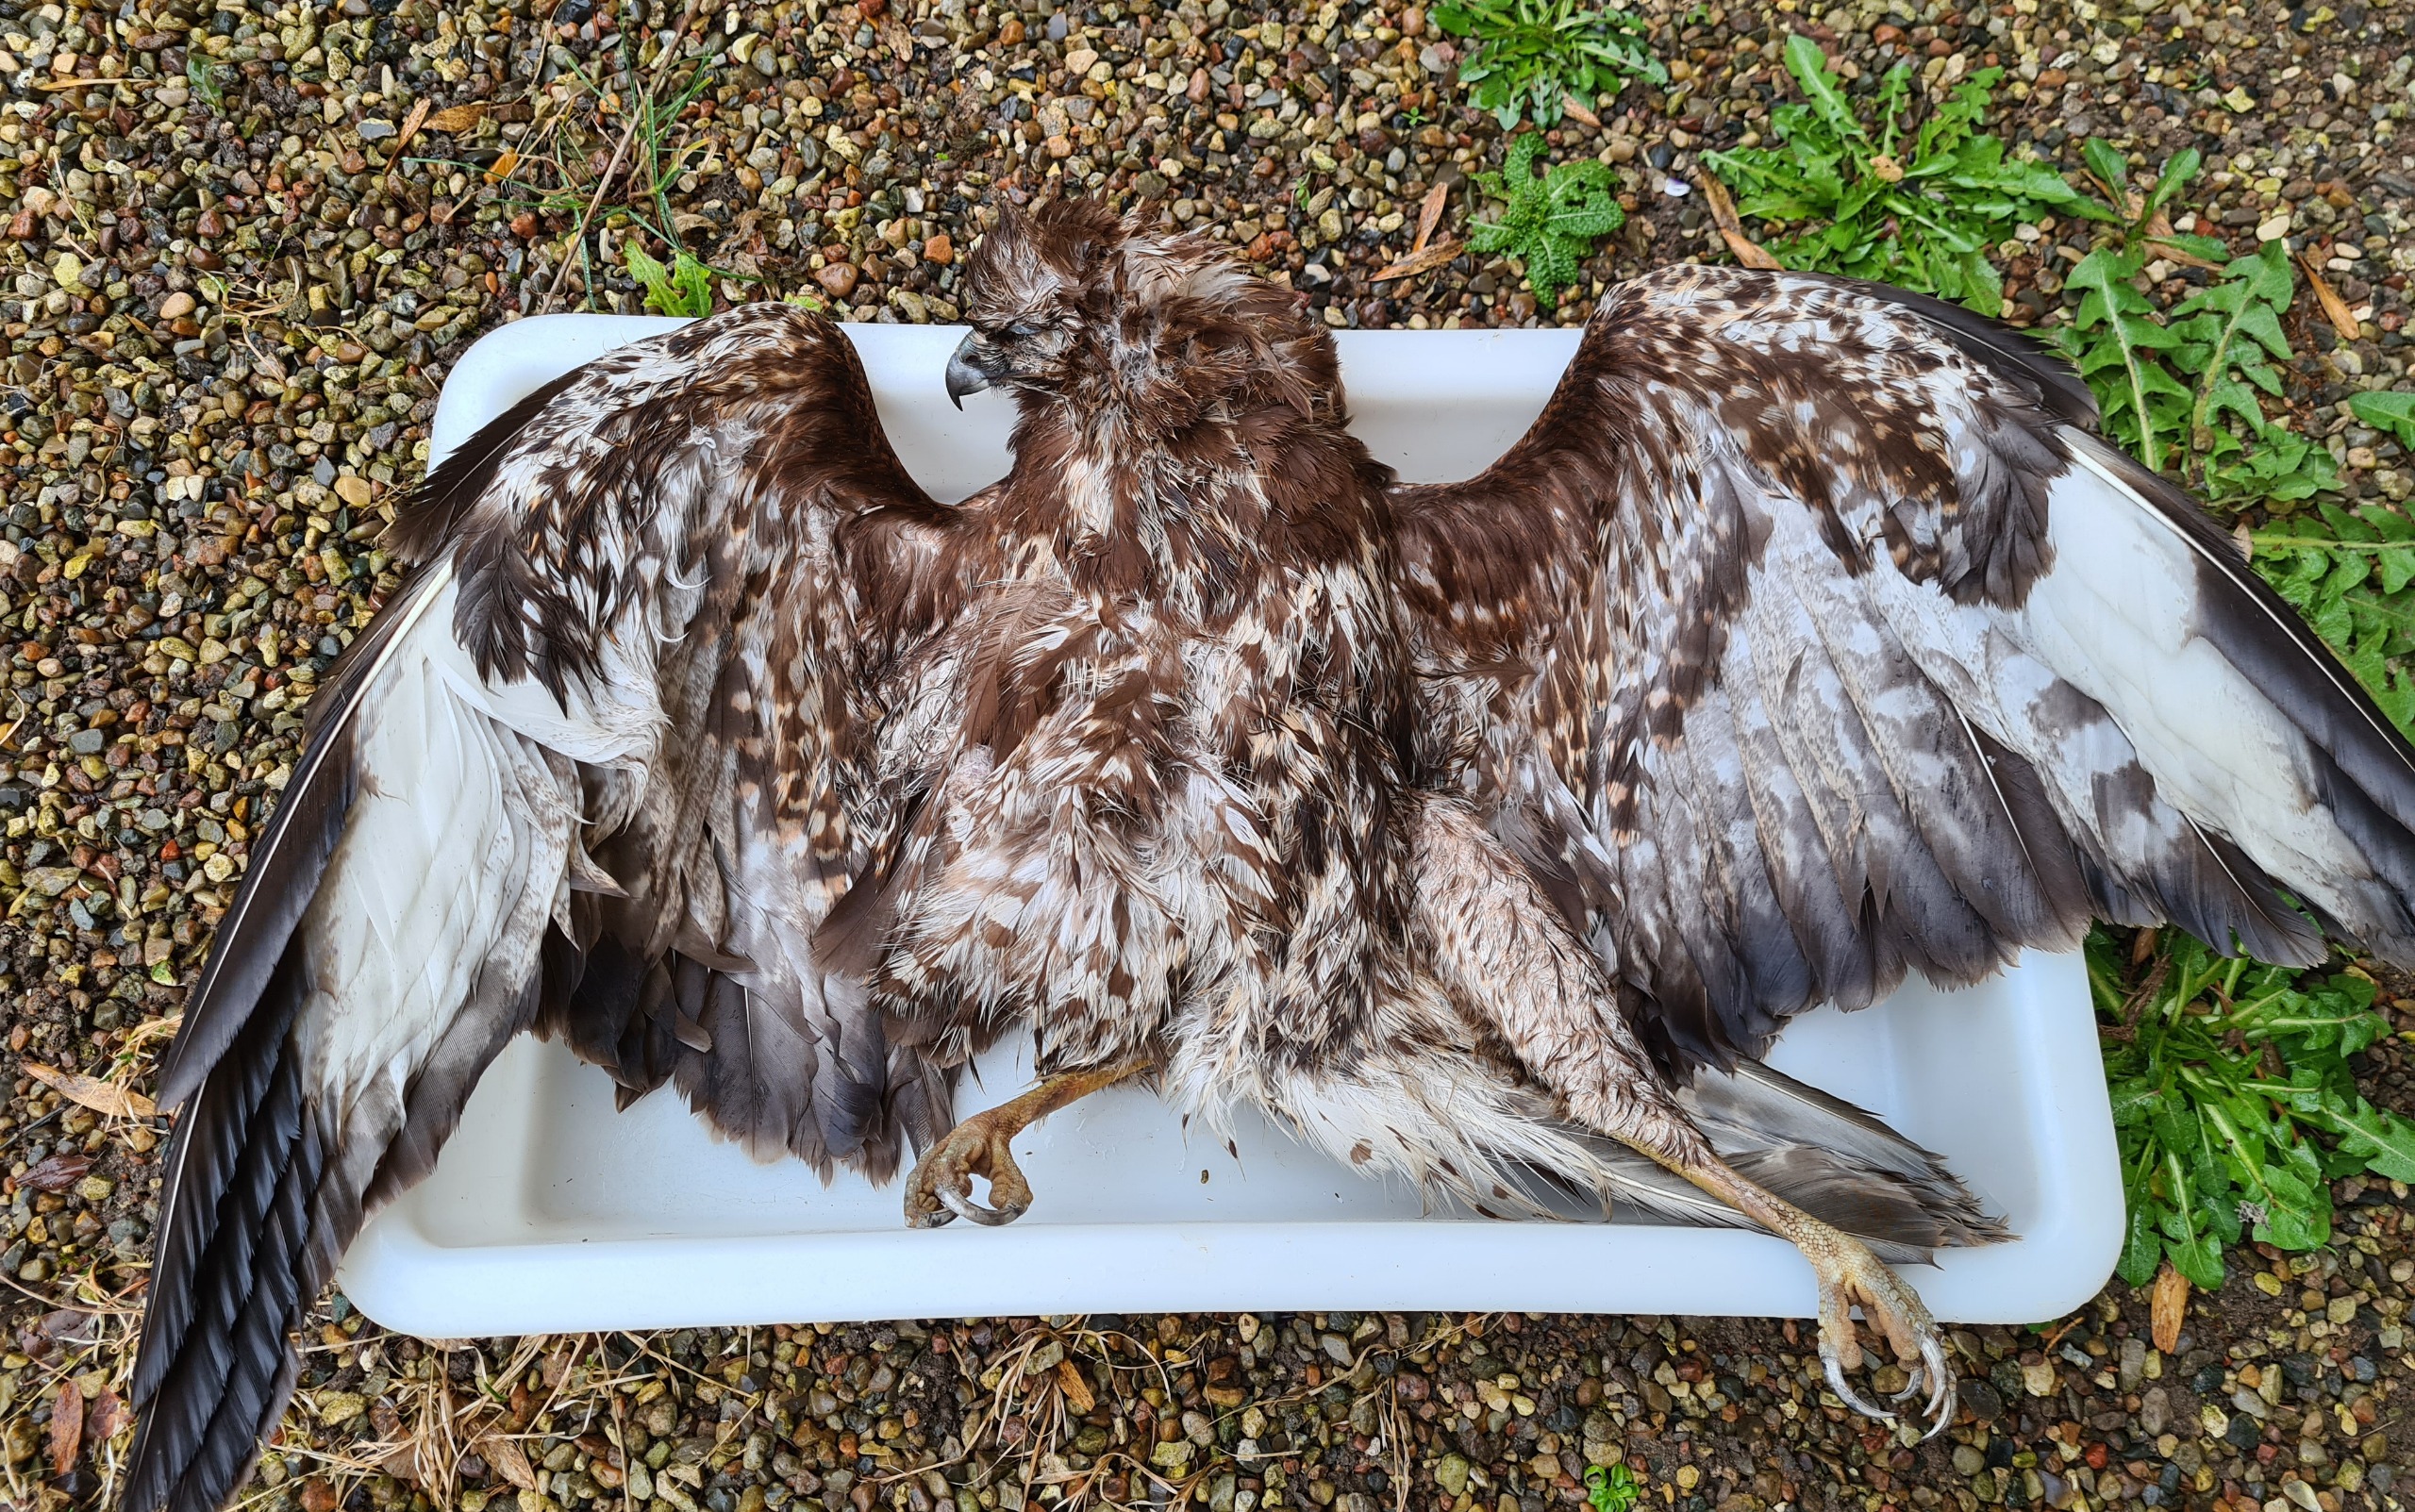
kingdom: Animalia
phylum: Chordata
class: Aves
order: Accipitriformes
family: Accipitridae
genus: Buteo
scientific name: Buteo buteo
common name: Musvåge
